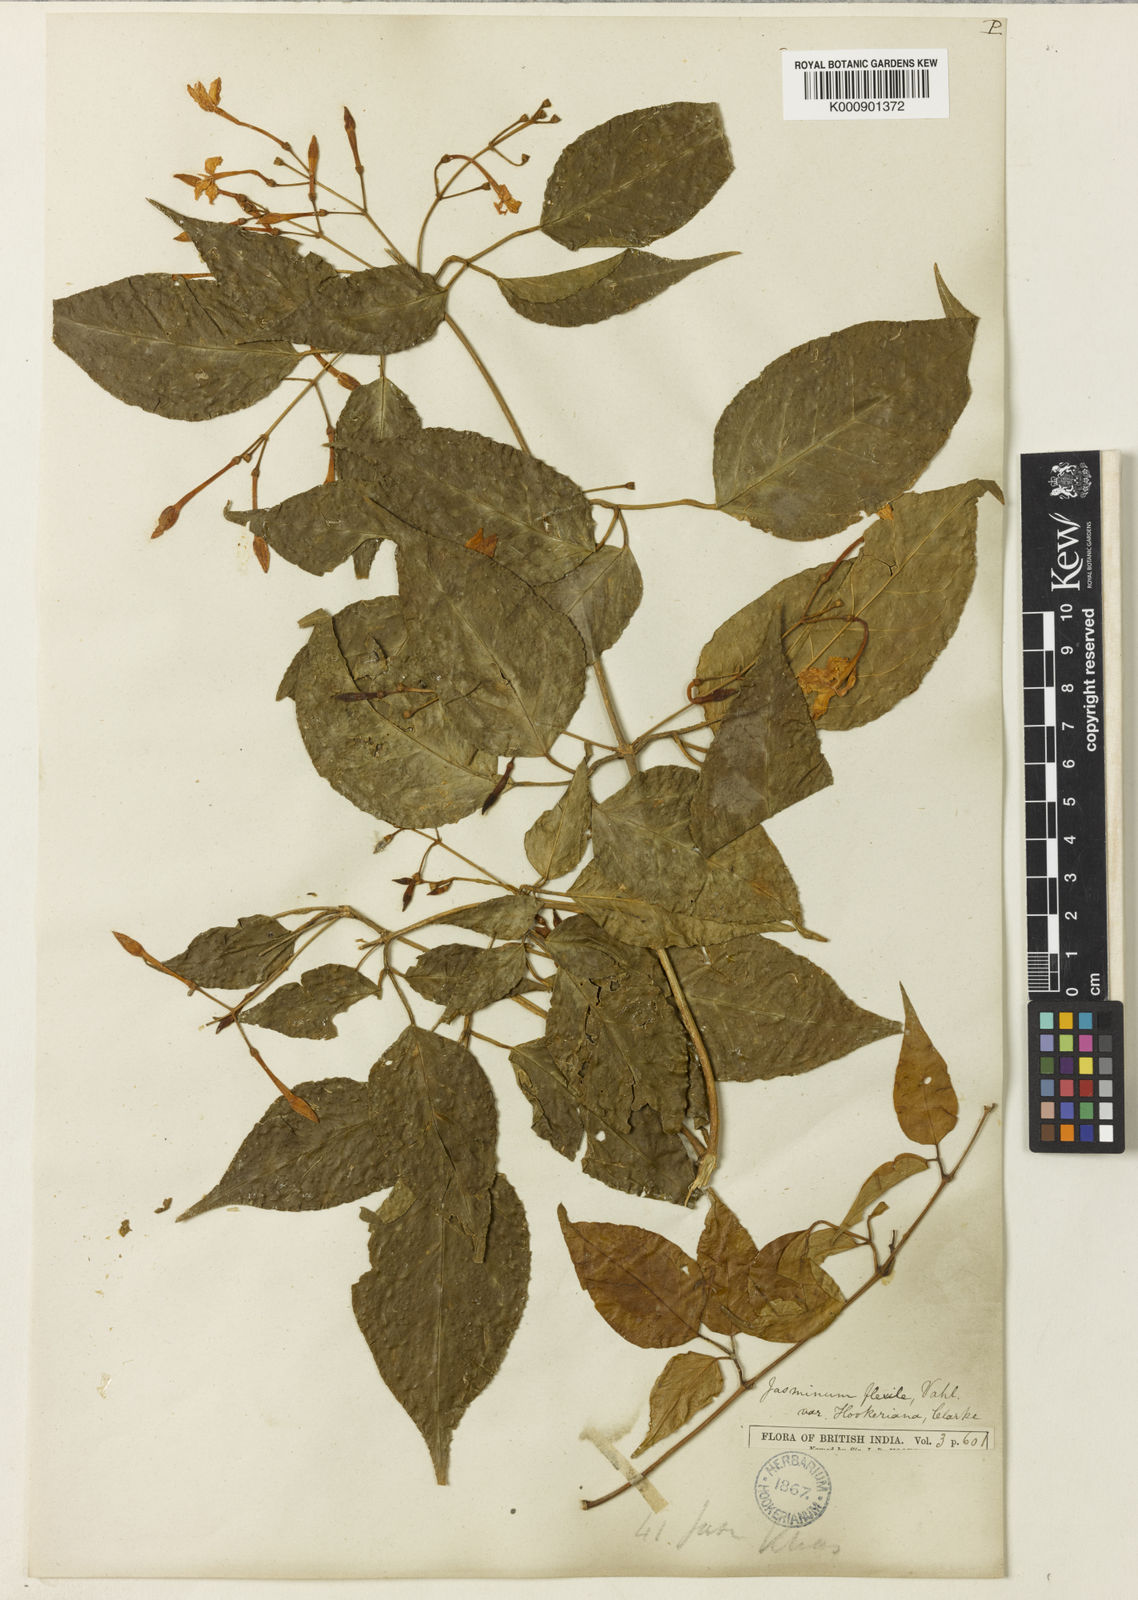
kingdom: Plantae
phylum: Tracheophyta
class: Magnoliopsida
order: Lamiales
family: Oleaceae
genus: Jasminum
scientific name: Jasminum flexile
